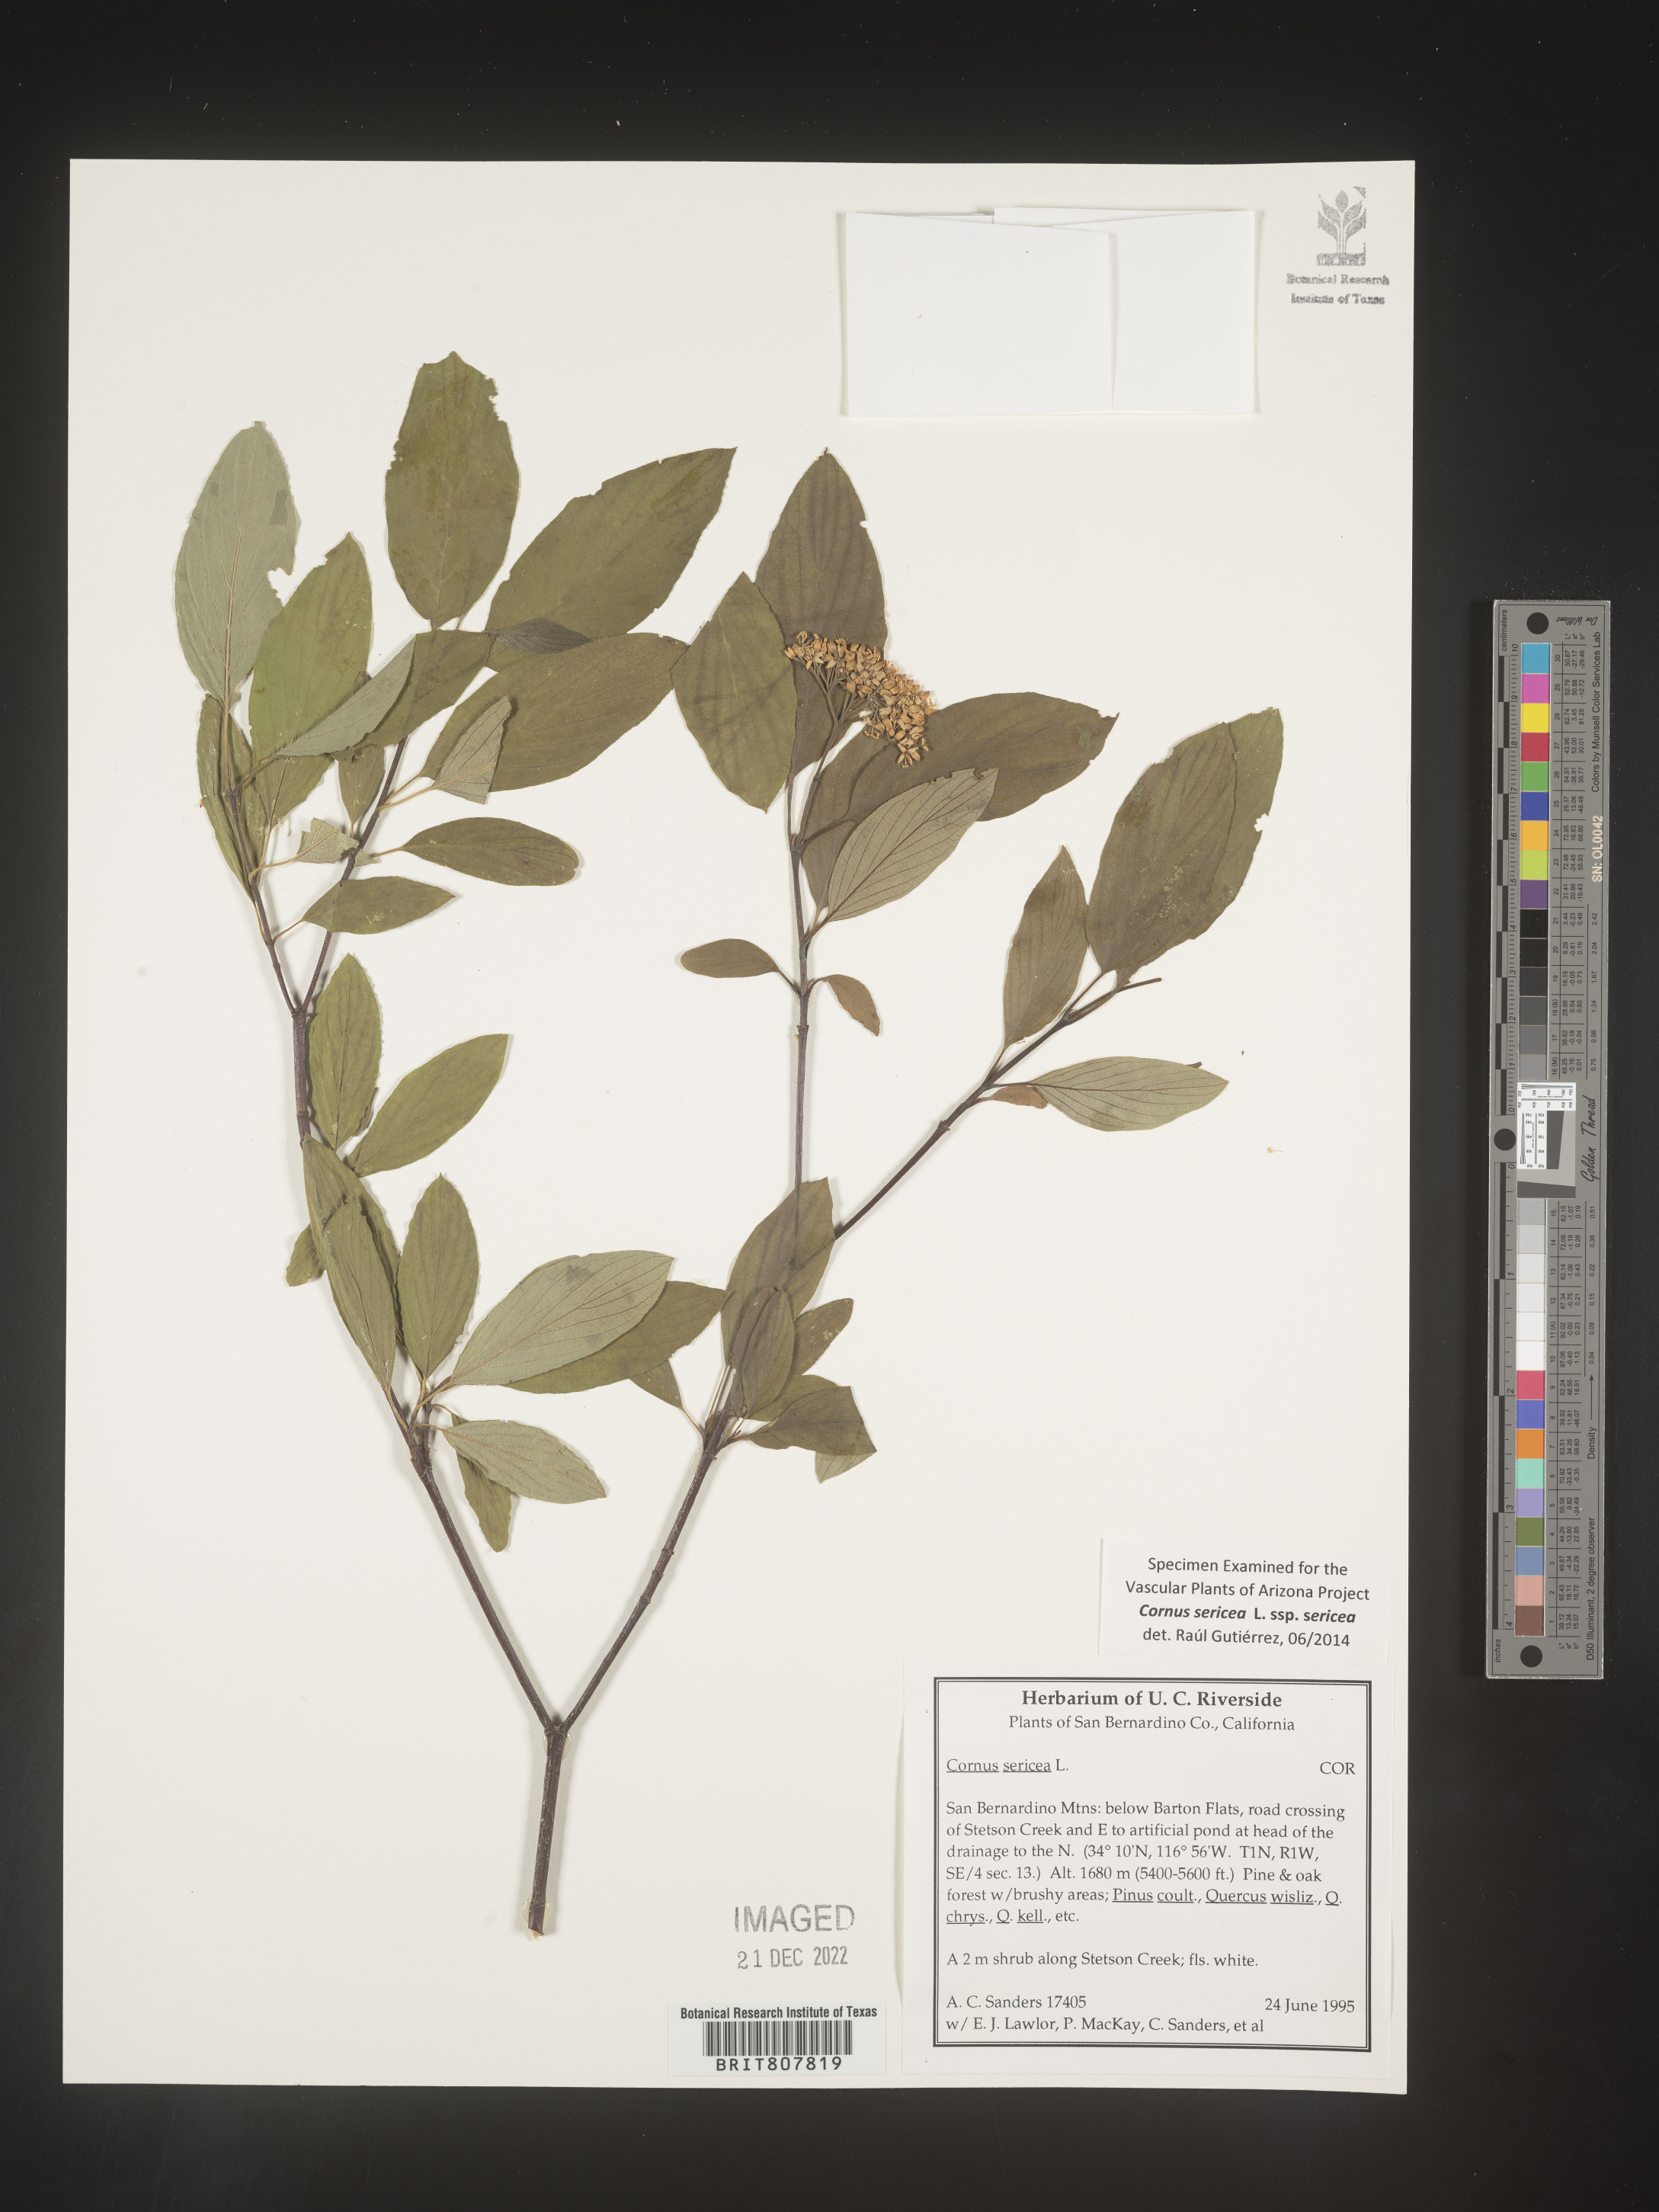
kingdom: Plantae
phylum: Tracheophyta
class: Magnoliopsida
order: Cornales
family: Cornaceae
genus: Cornus
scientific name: Cornus
